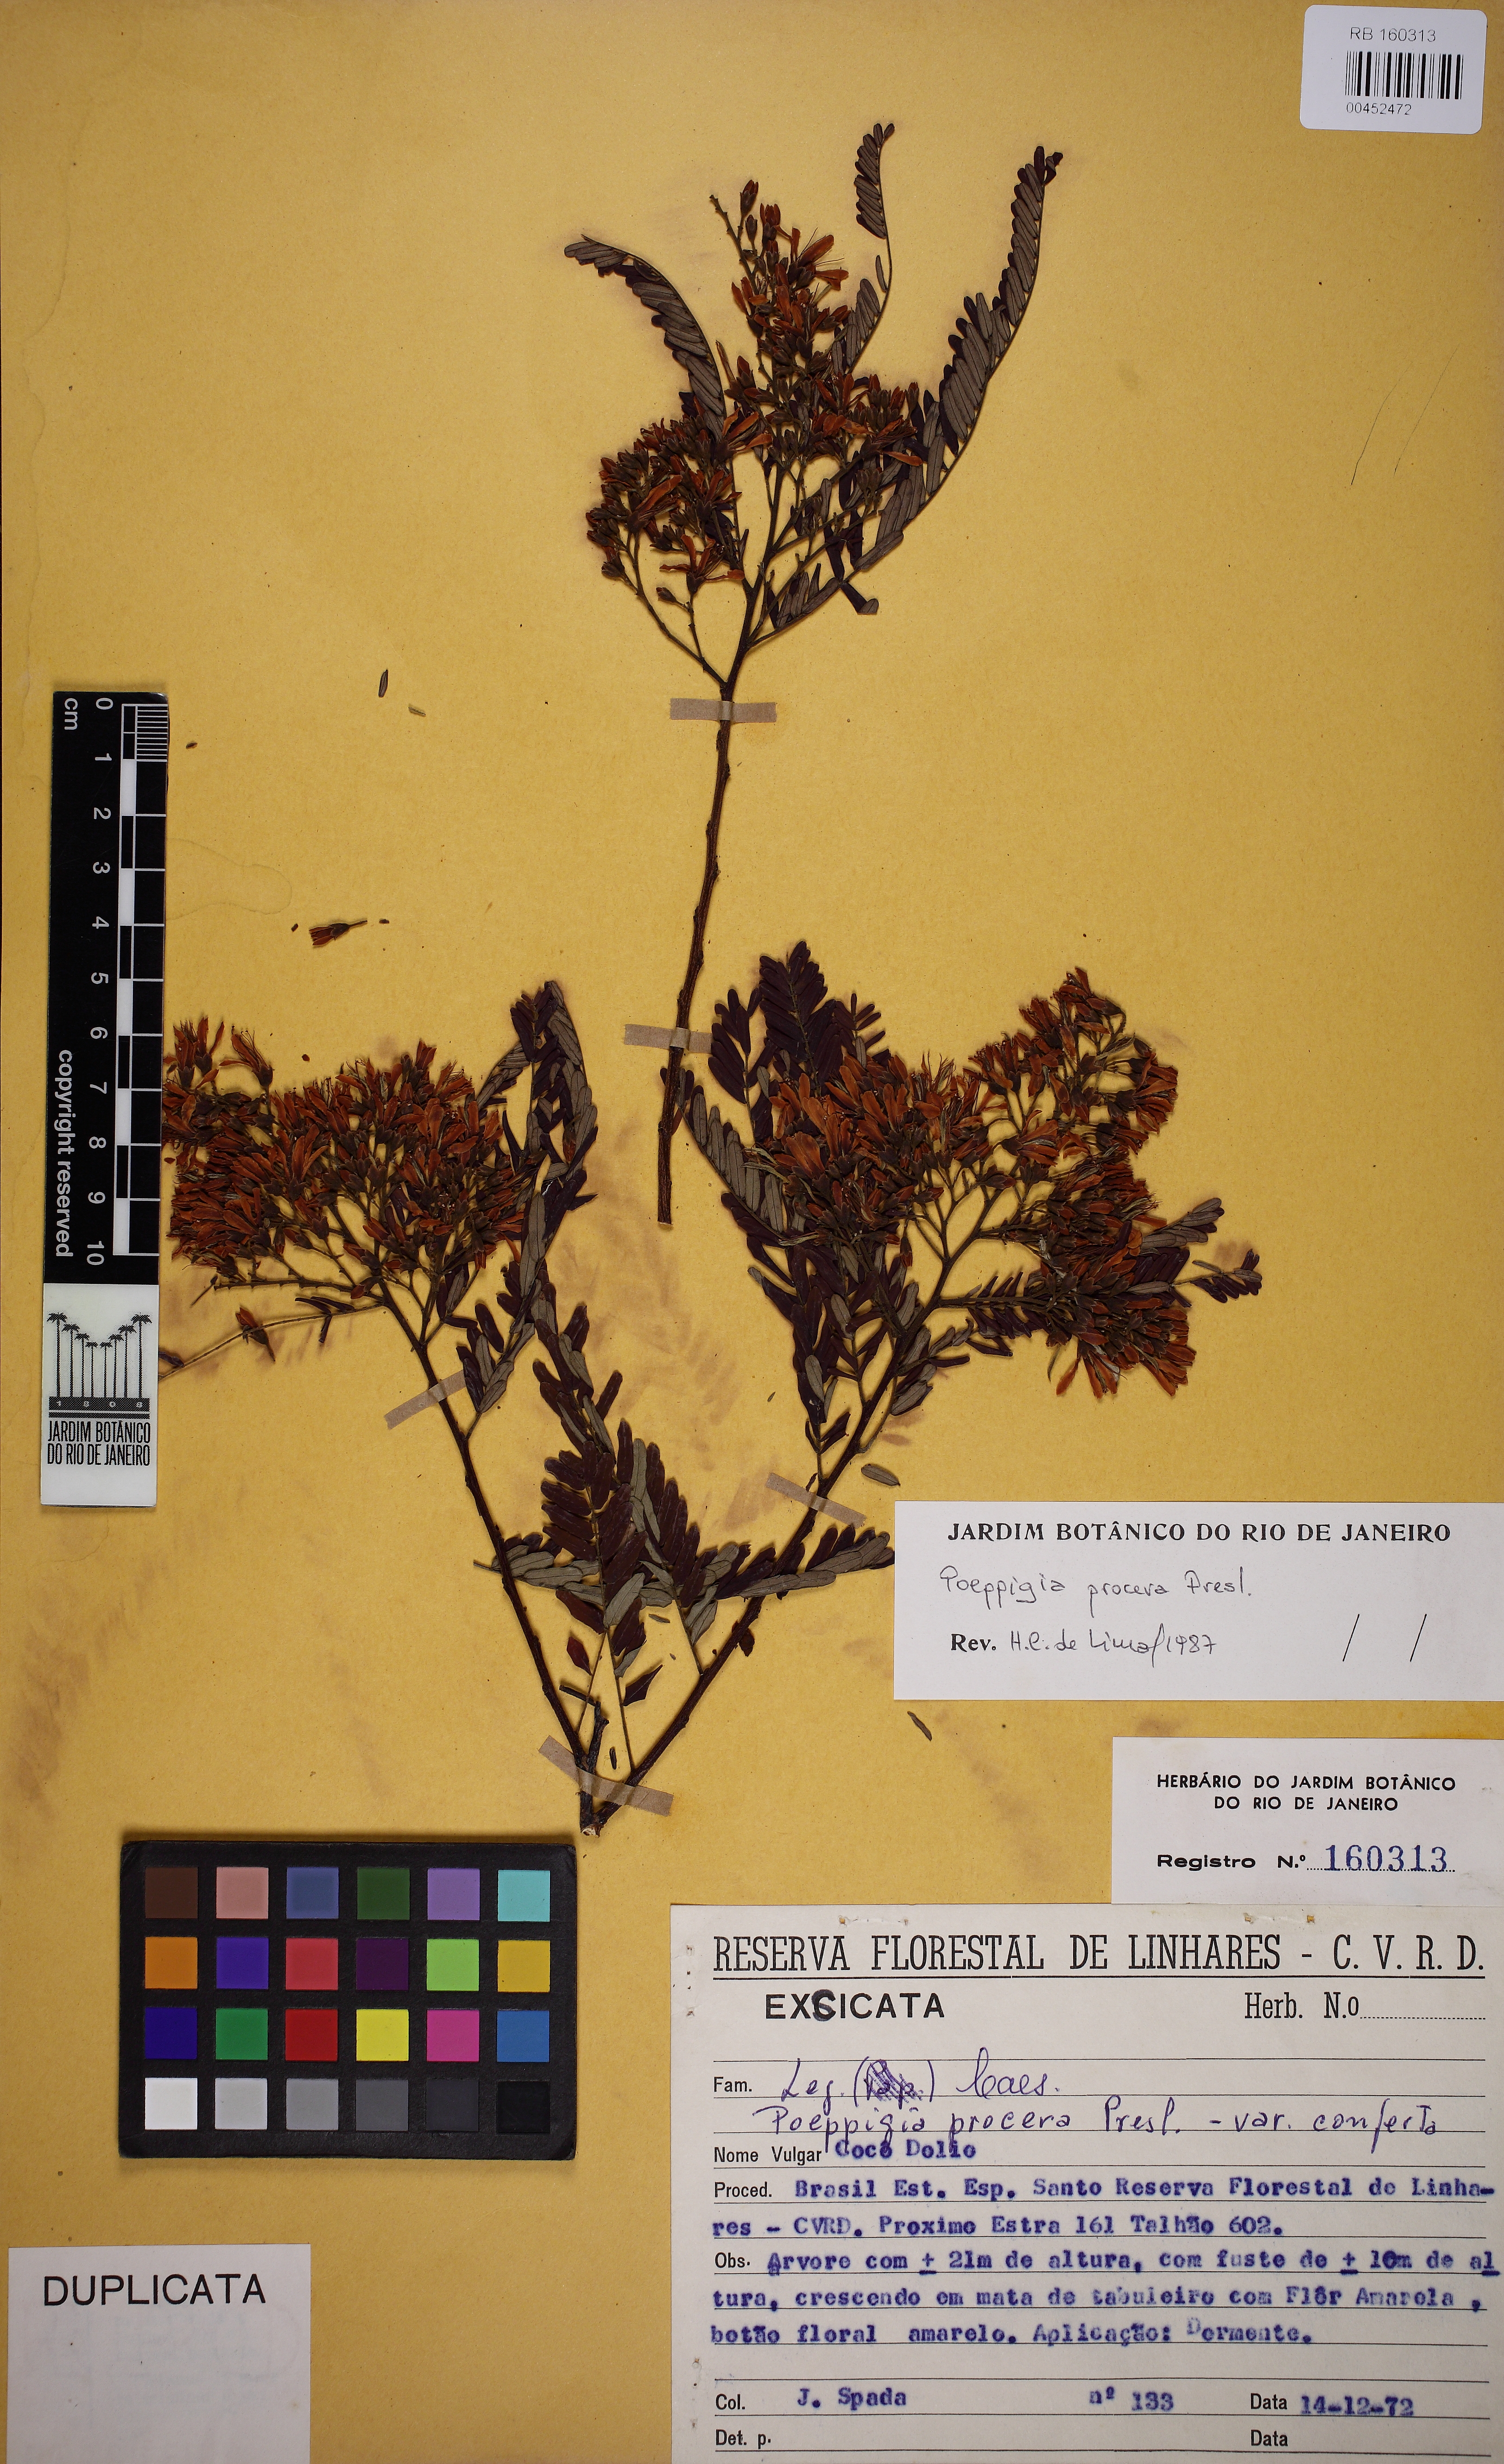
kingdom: Plantae
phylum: Tracheophyta
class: Magnoliopsida
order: Fabales
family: Fabaceae
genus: Poeppigia
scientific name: Poeppigia procera
